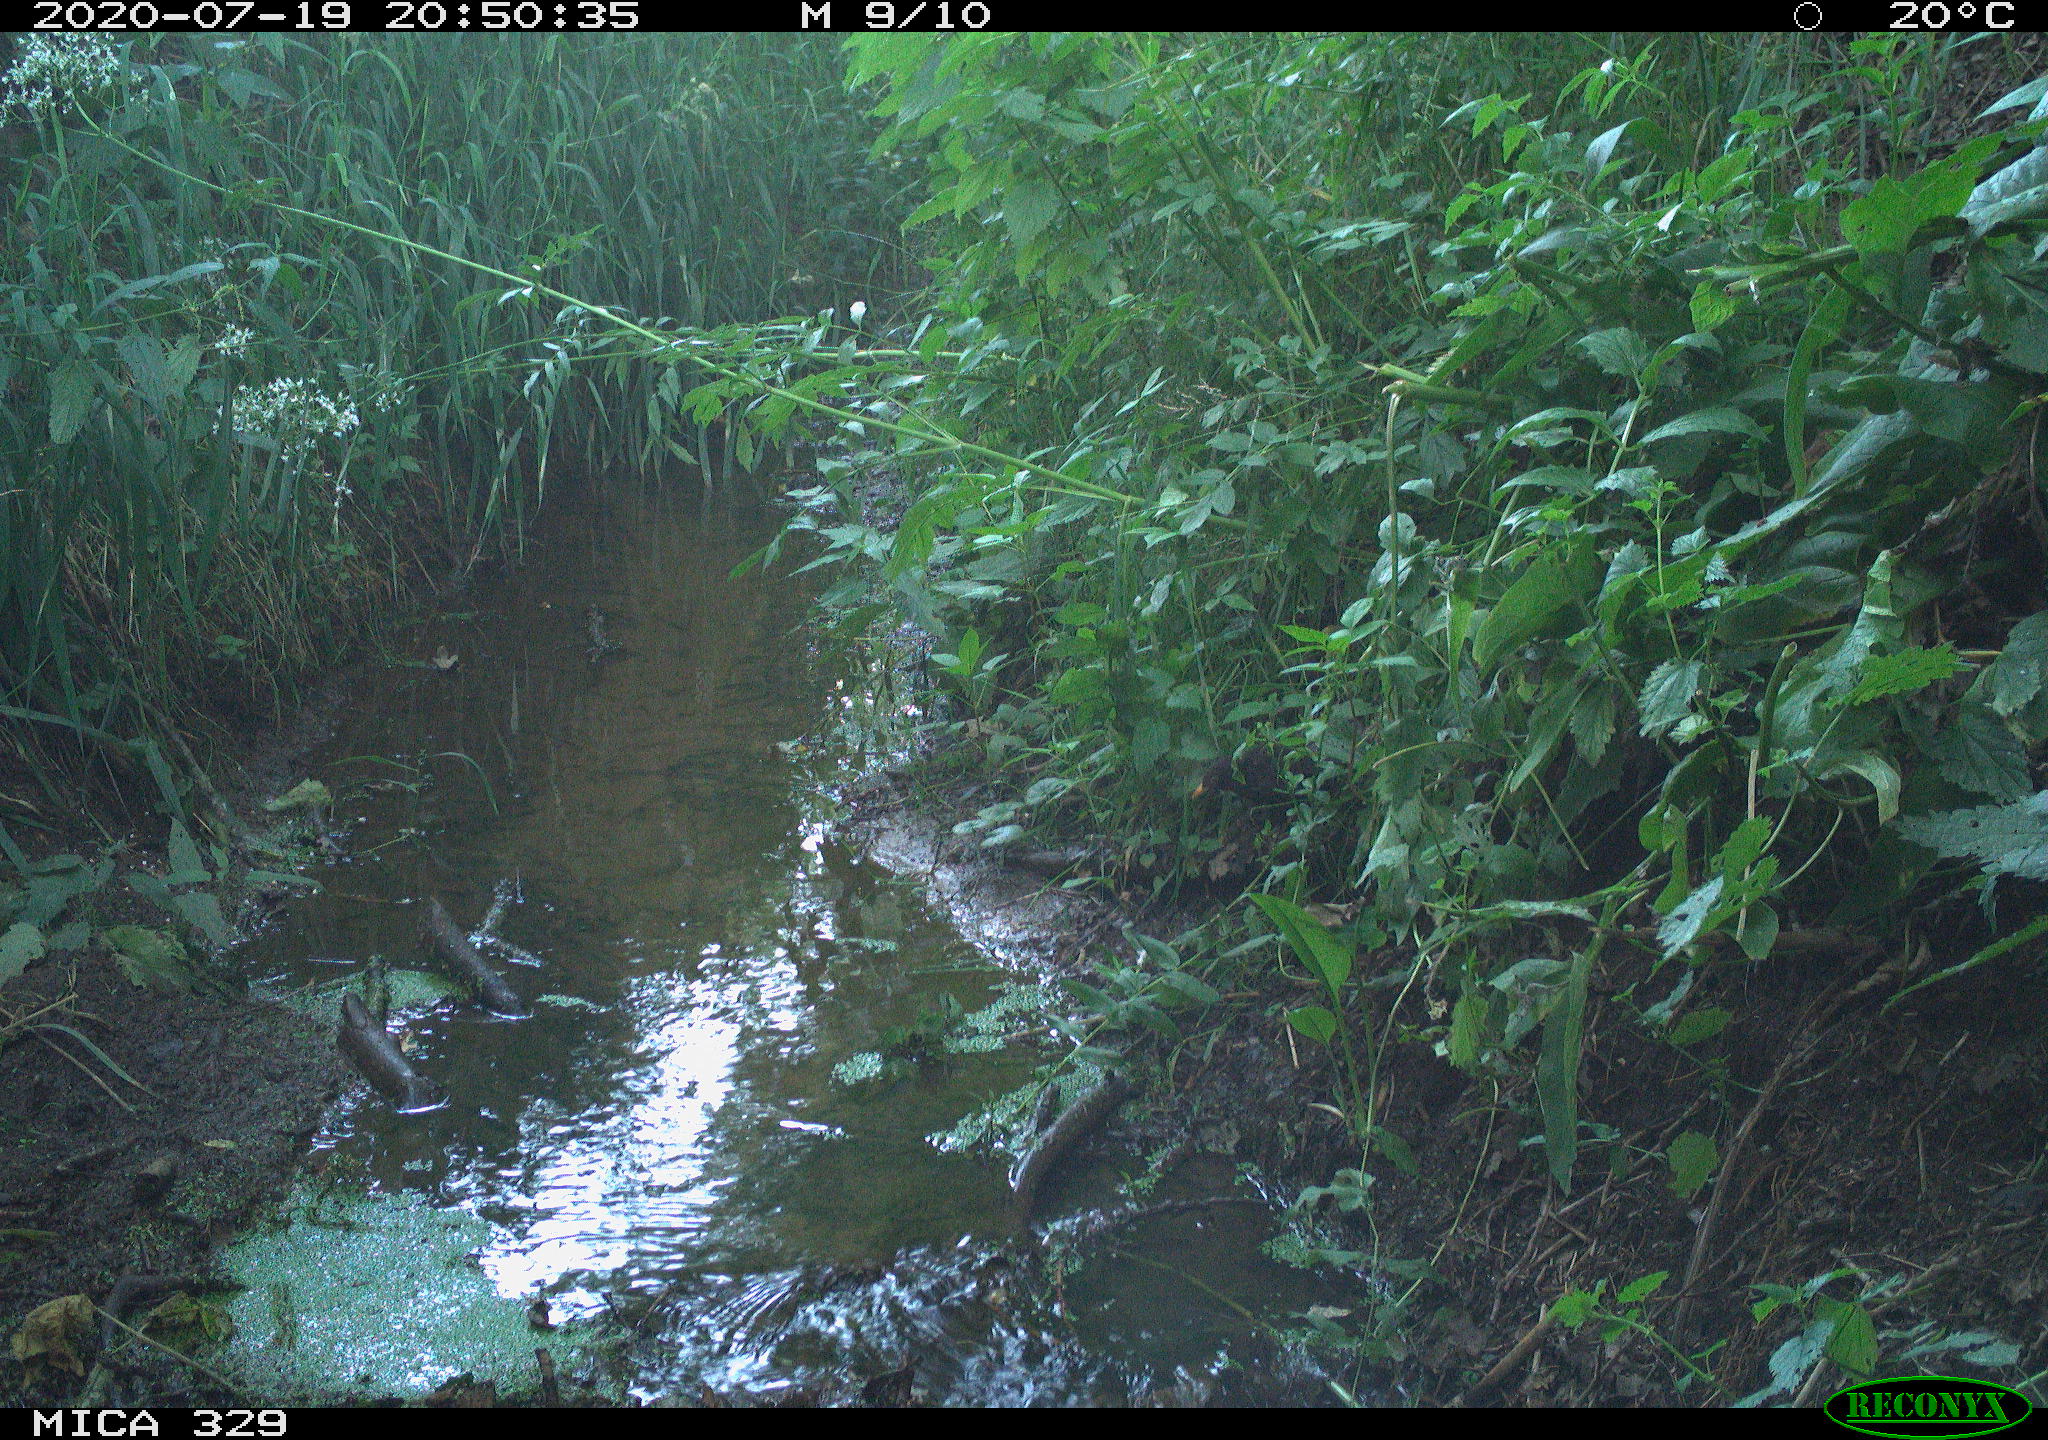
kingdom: Animalia
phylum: Chordata
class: Aves
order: Passeriformes
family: Turdidae
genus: Turdus
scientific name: Turdus merula
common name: Common blackbird
